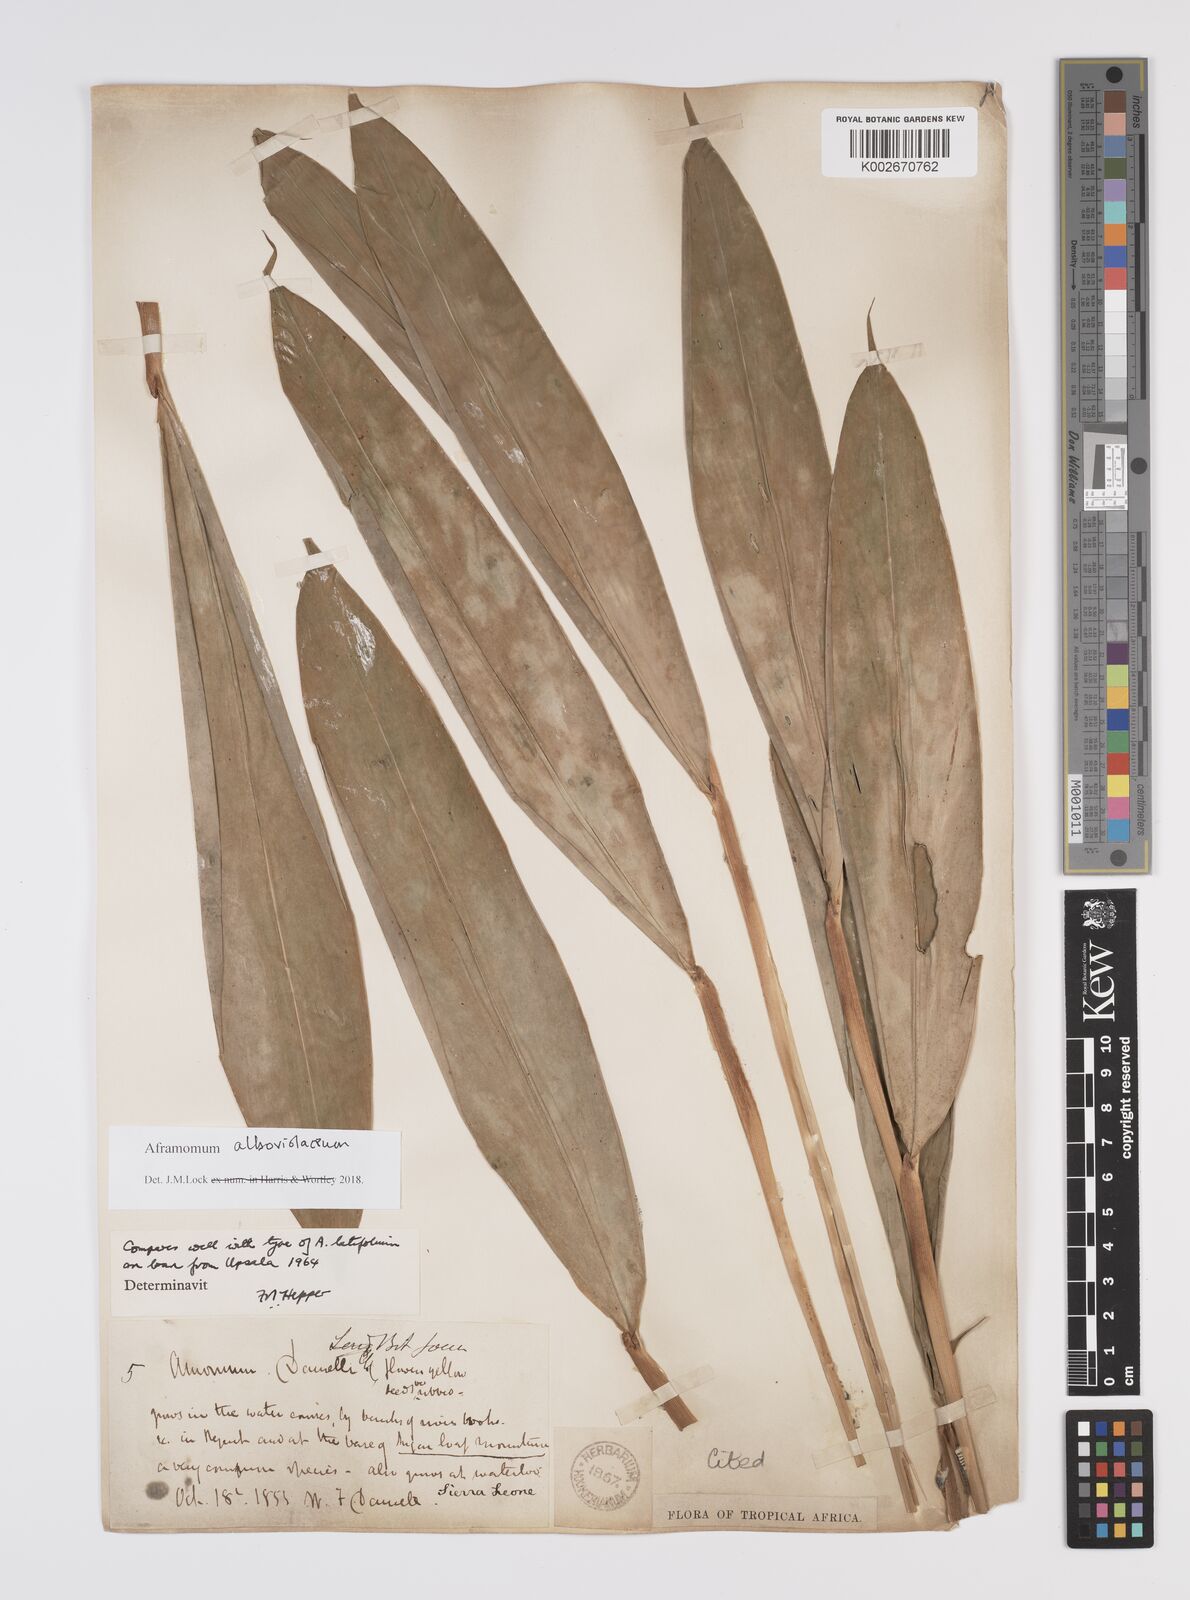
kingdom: Plantae
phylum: Tracheophyta
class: Liliopsida
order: Zingiberales
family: Zingiberaceae
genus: Aframomum
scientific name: Aframomum alboviolaceum
